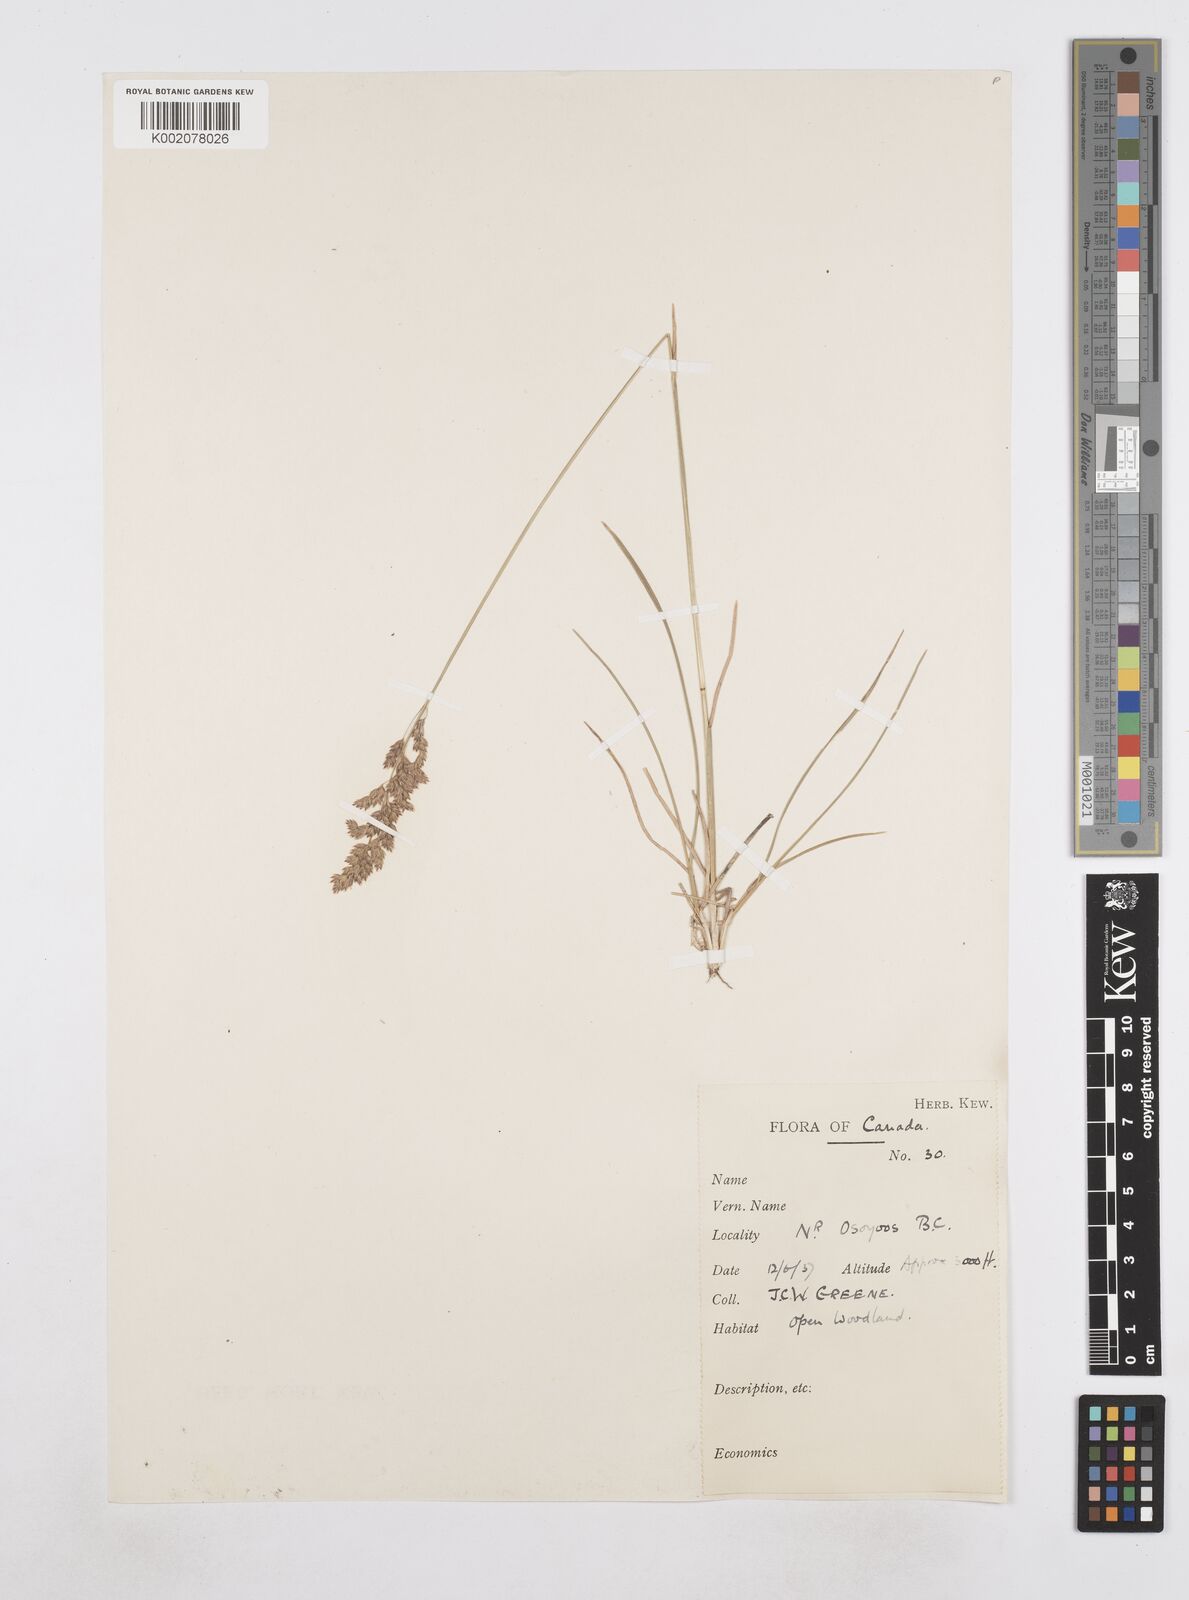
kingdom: Plantae
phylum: Tracheophyta
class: Liliopsida
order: Poales
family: Poaceae
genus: Poa
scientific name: Poa
